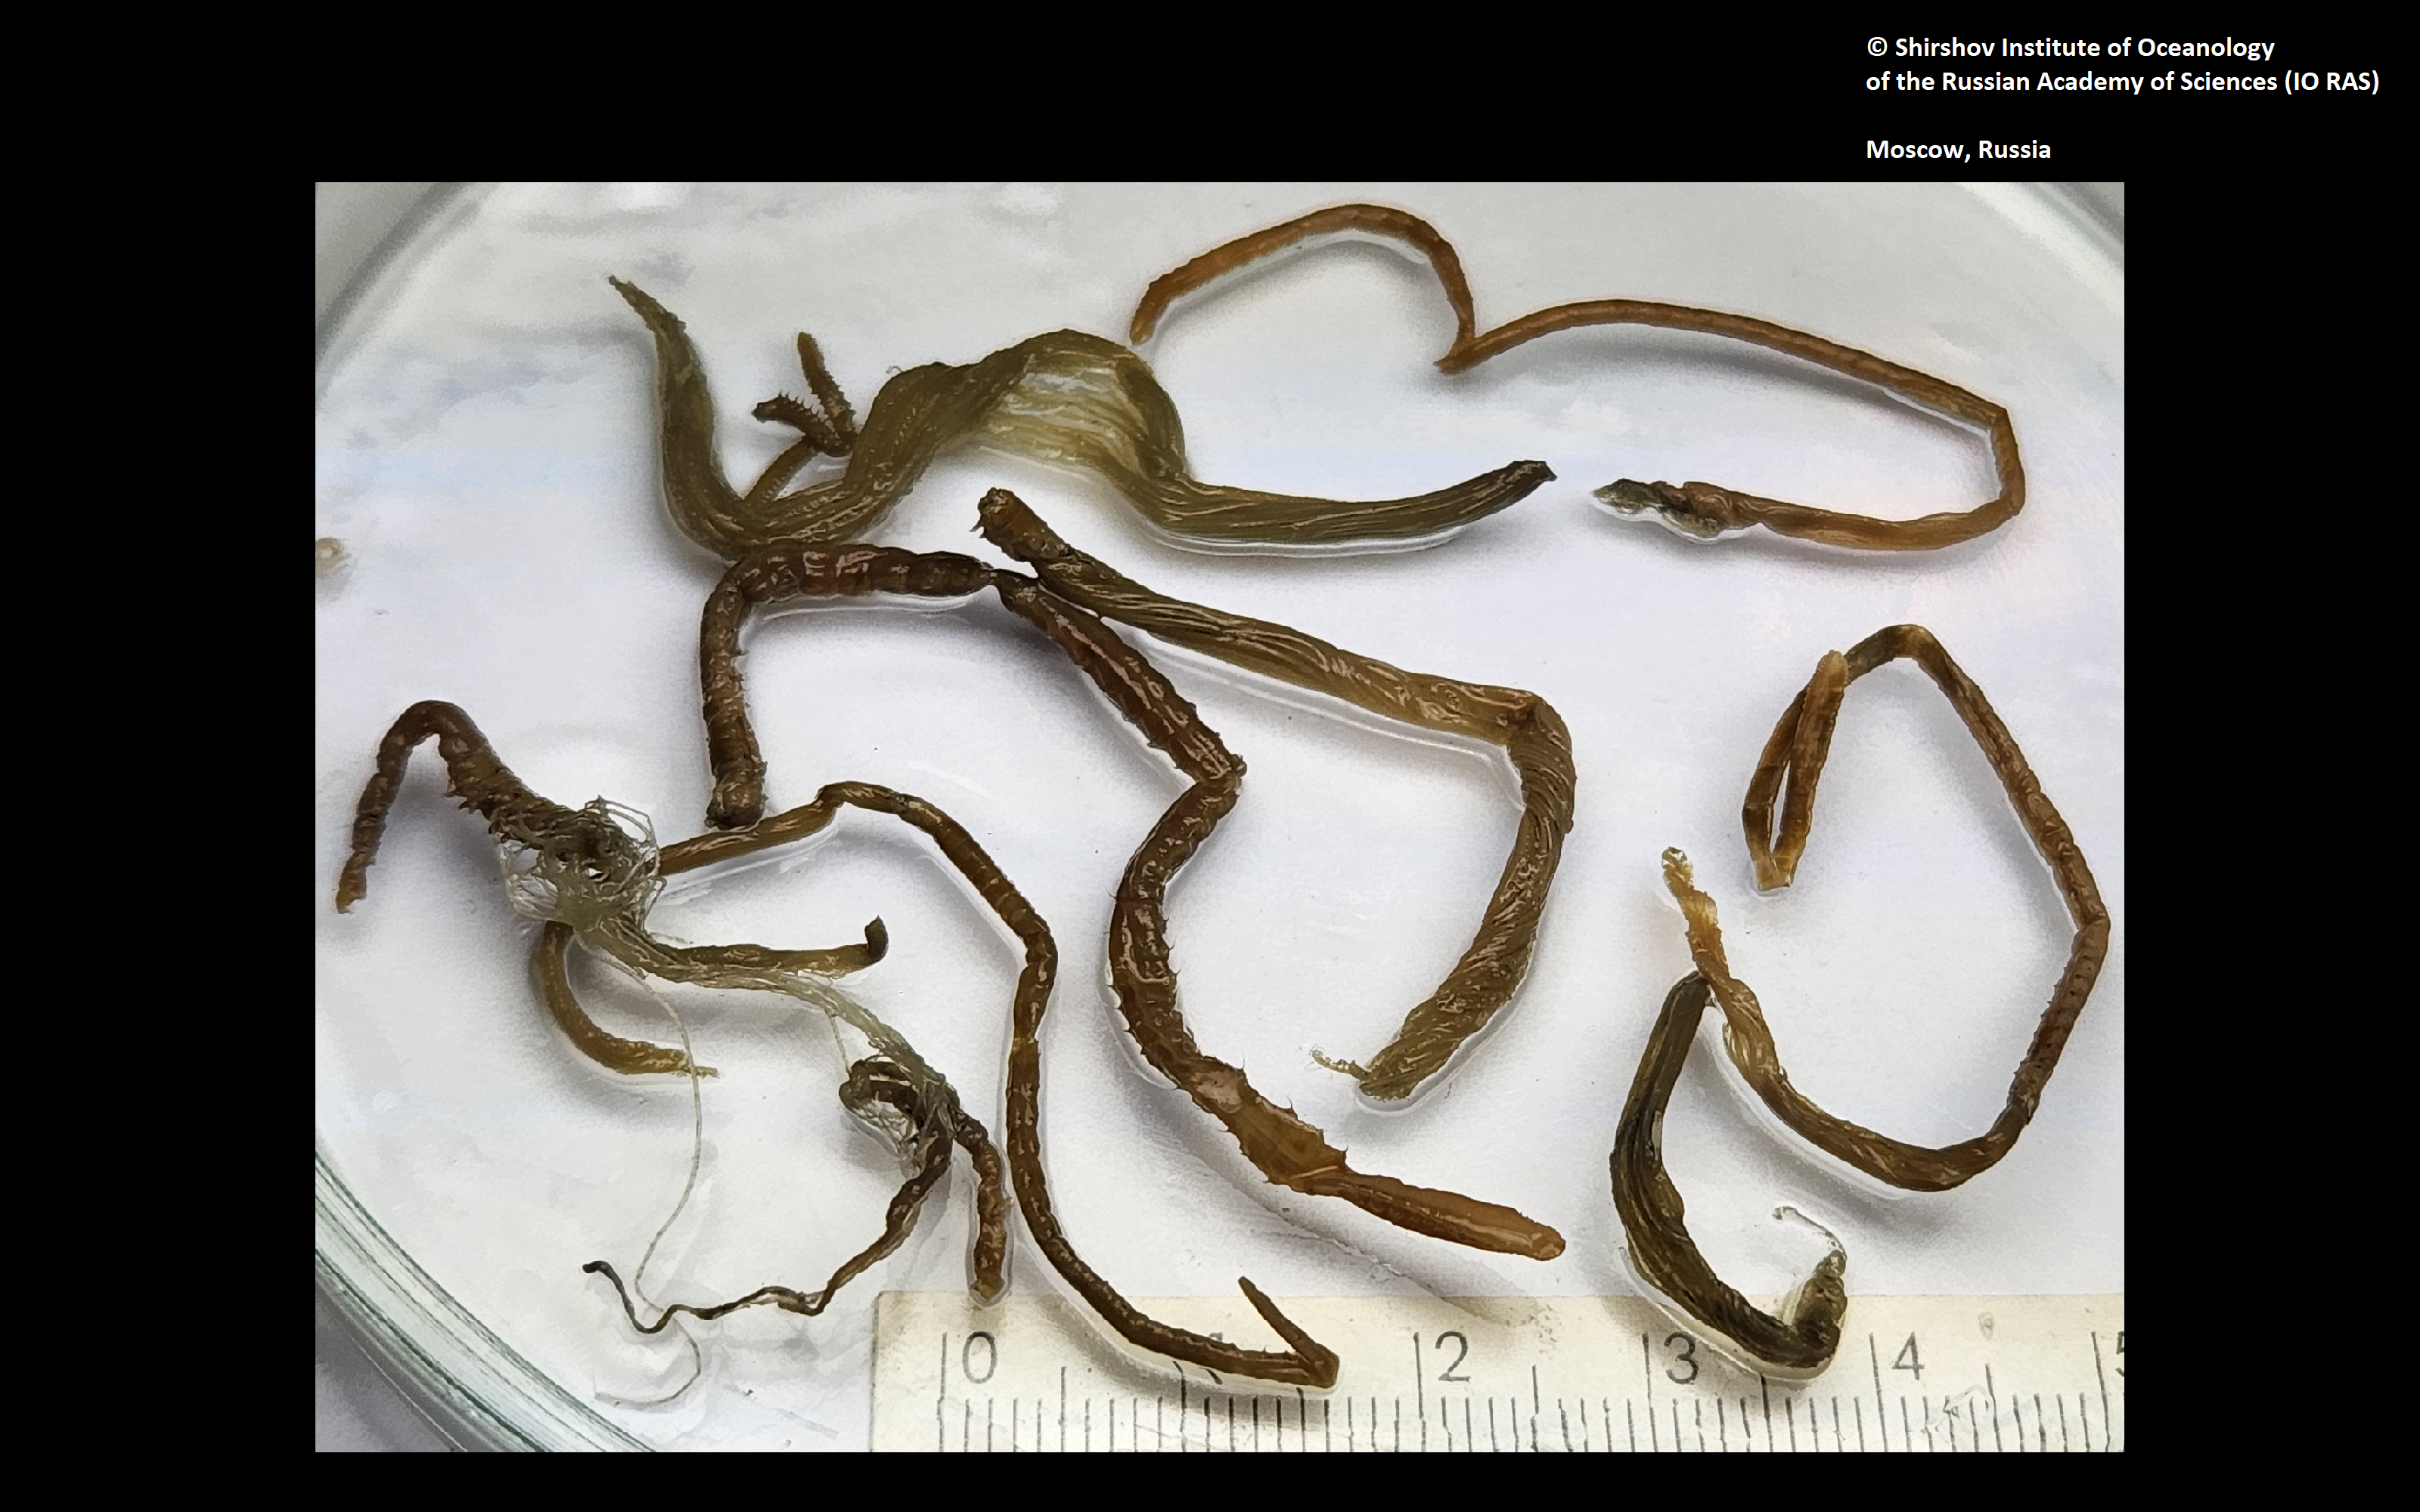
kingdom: Animalia
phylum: Annelida
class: Polychaeta
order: Sabellida
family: Sabellidae
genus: Jasmineira
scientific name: Jasmineira filatovae
